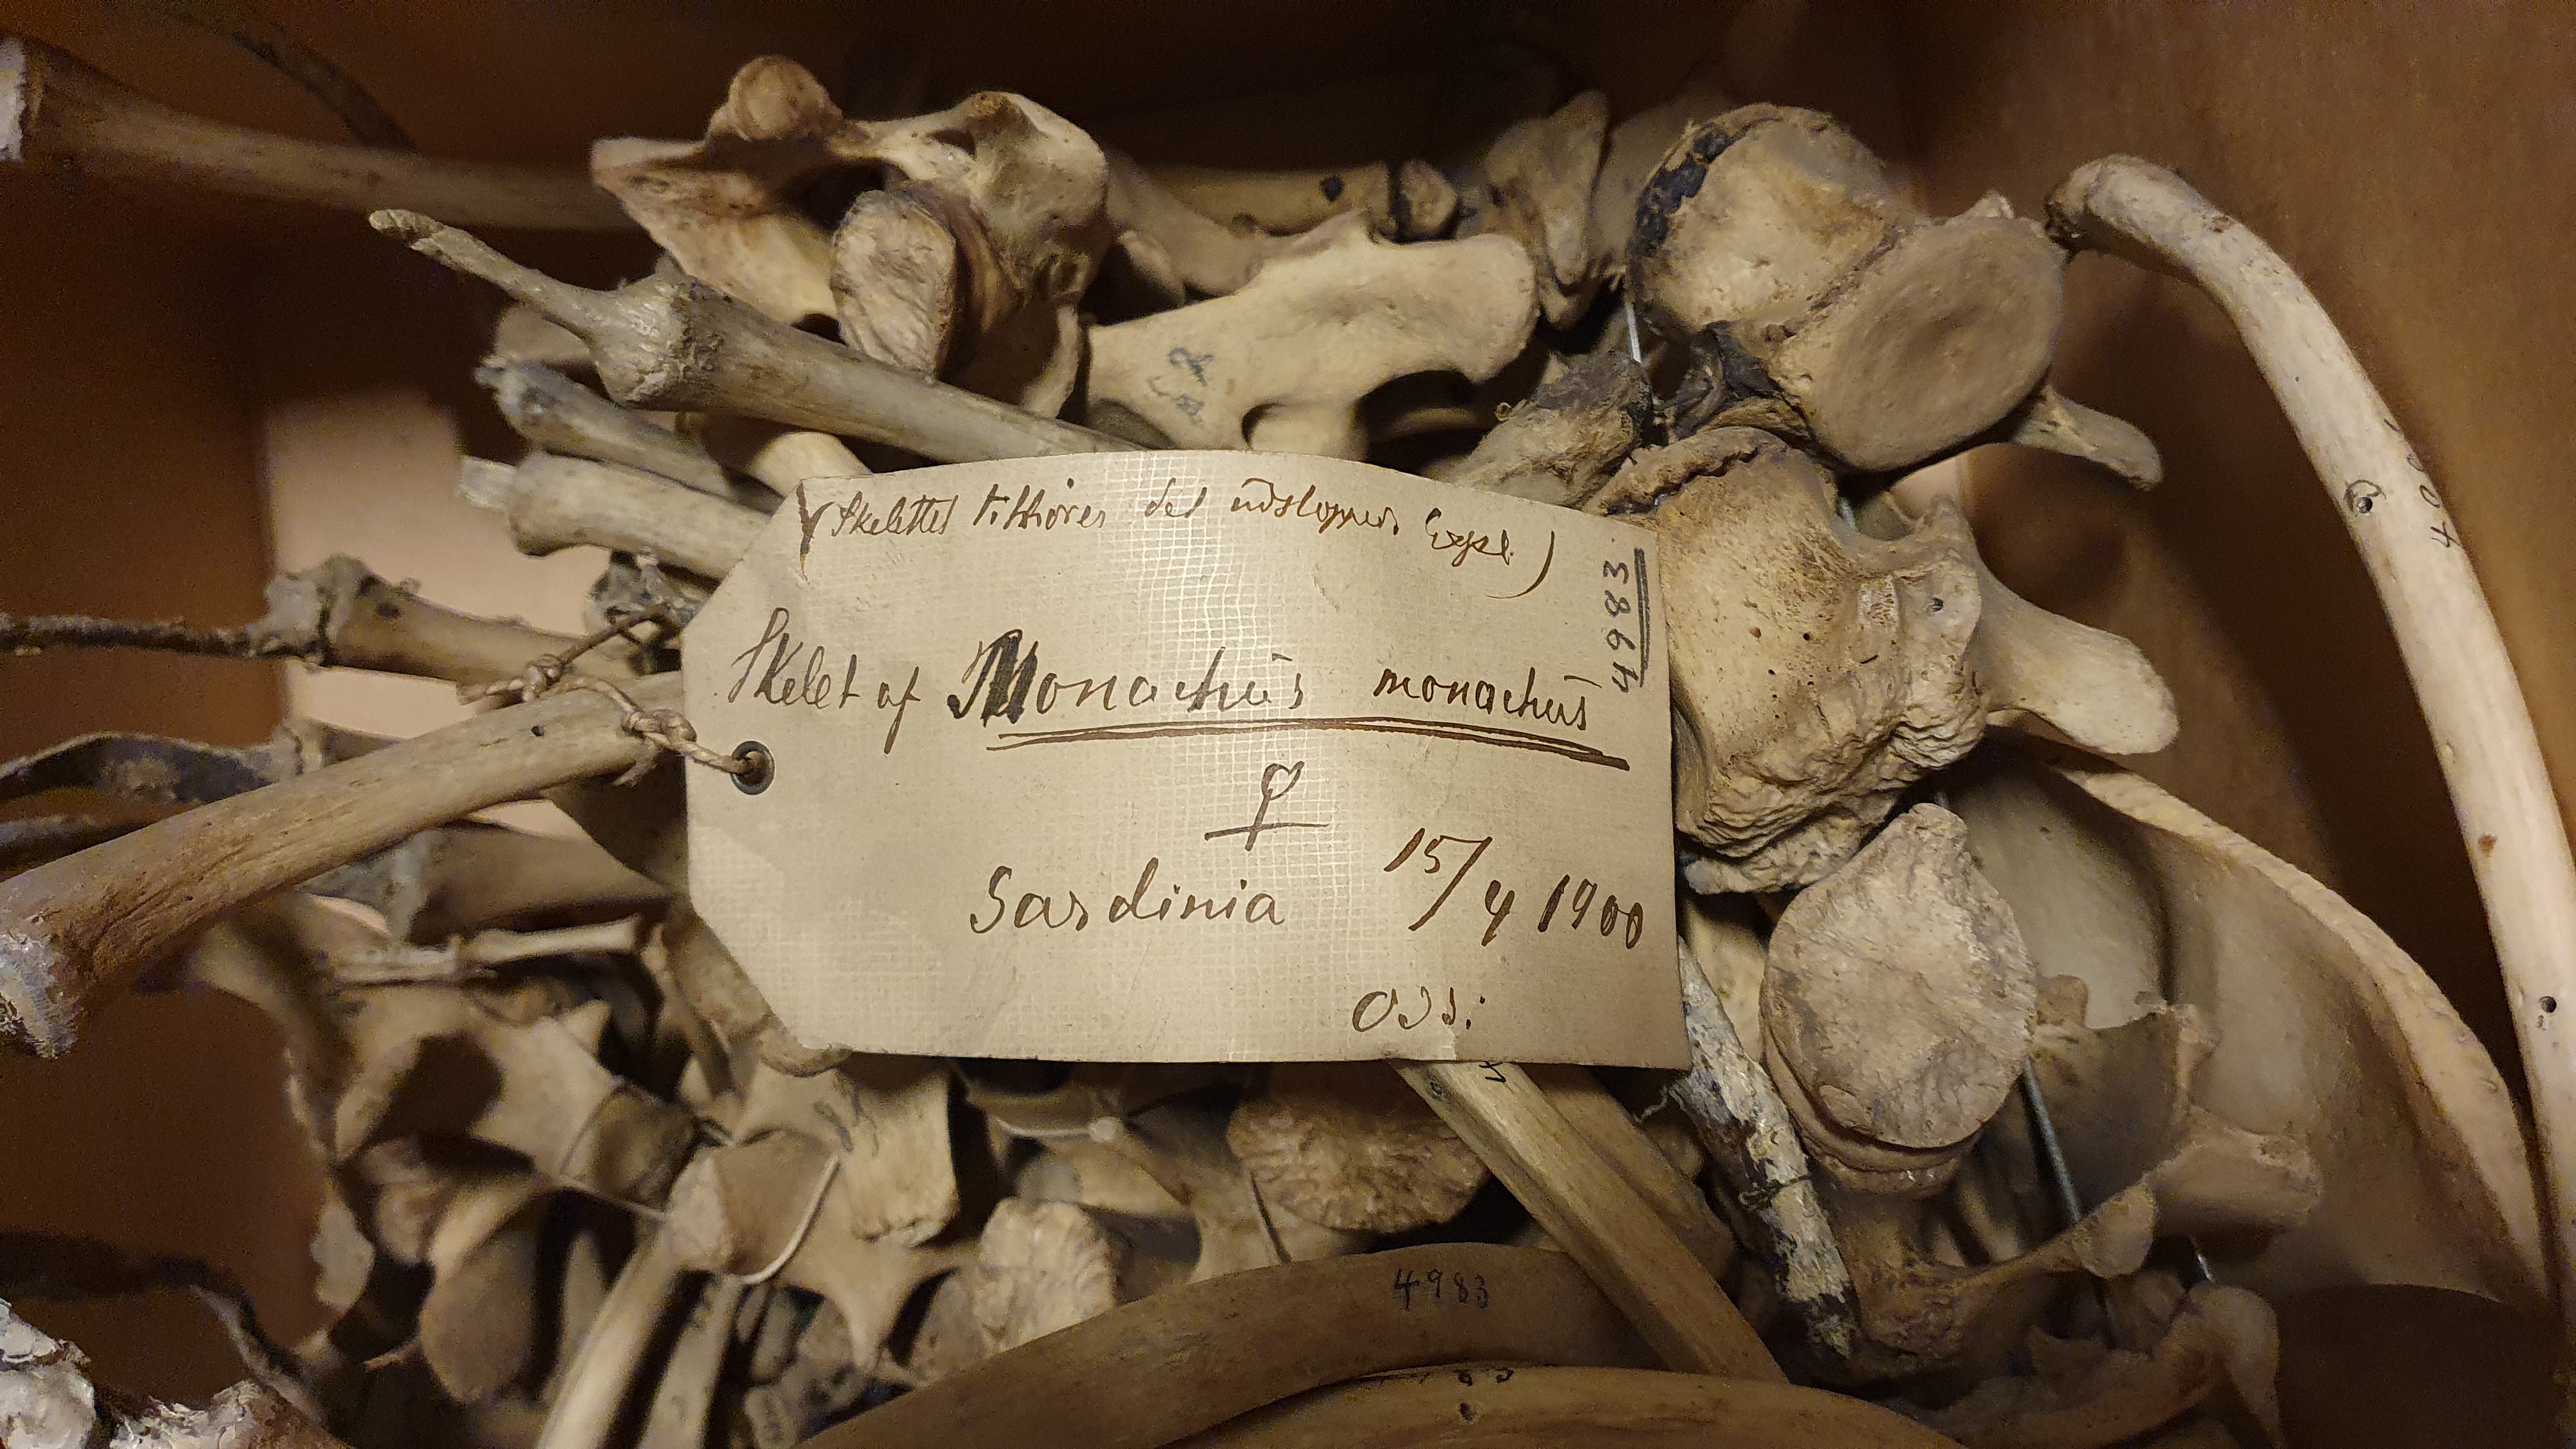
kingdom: Animalia
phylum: Chordata
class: Mammalia
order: Carnivora
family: Phocidae
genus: Monachus
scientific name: Monachus monachus
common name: Mediterranean monk seal
